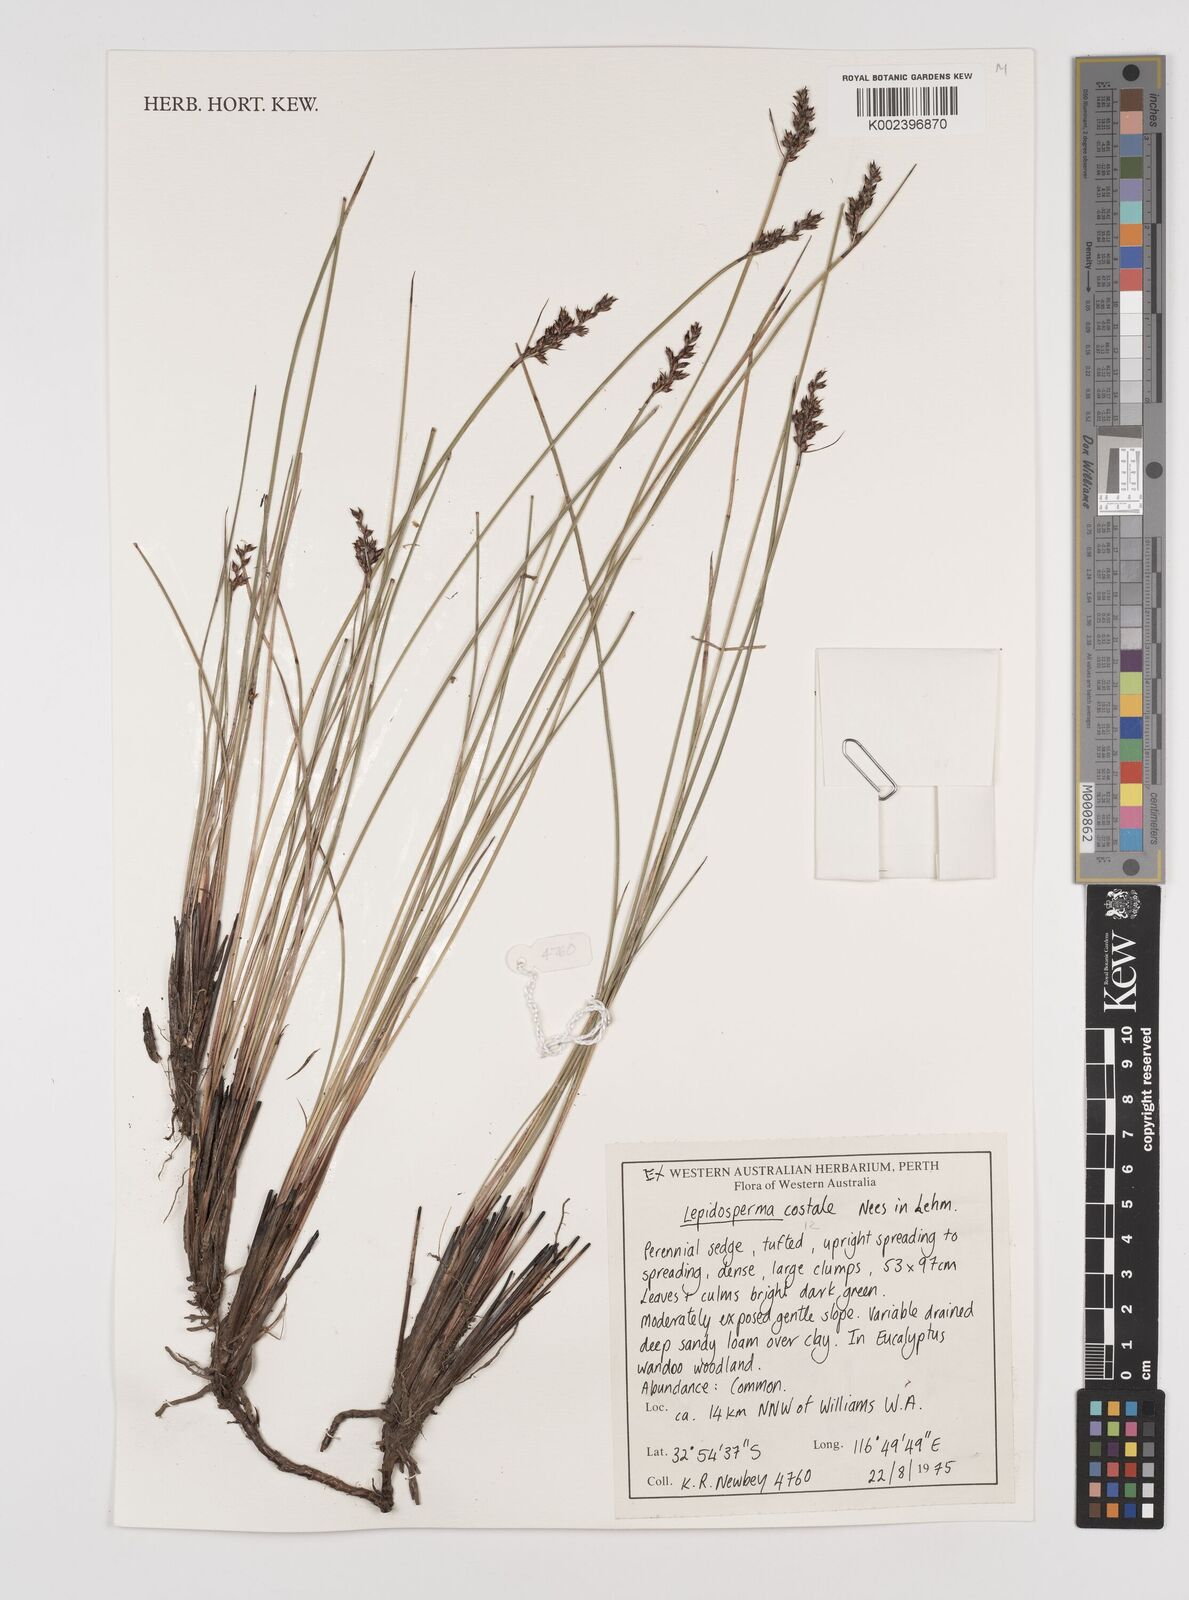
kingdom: Plantae
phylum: Tracheophyta
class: Liliopsida
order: Poales
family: Cyperaceae
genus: Lepidosperma
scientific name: Lepidosperma costale
